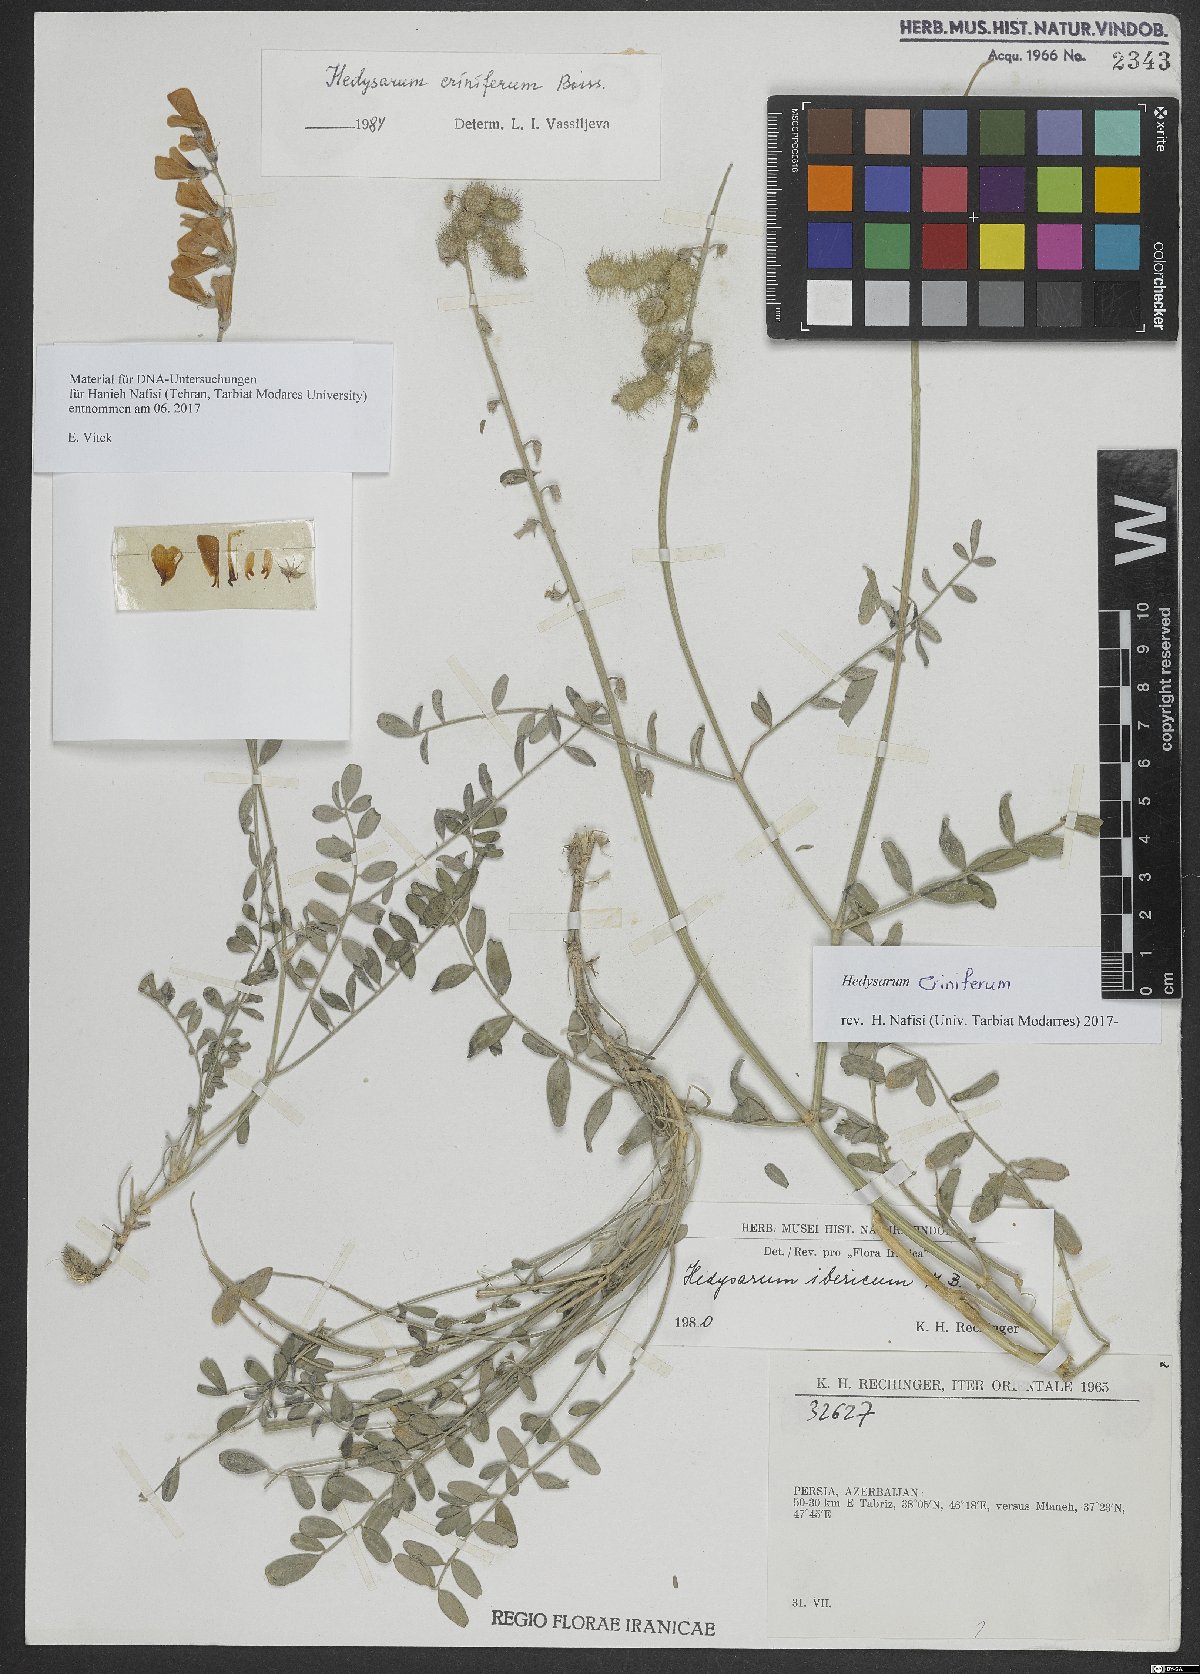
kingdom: Plantae
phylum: Tracheophyta
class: Magnoliopsida
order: Fabales
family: Fabaceae
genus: Hedysarum
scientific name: Hedysarum criniferum
